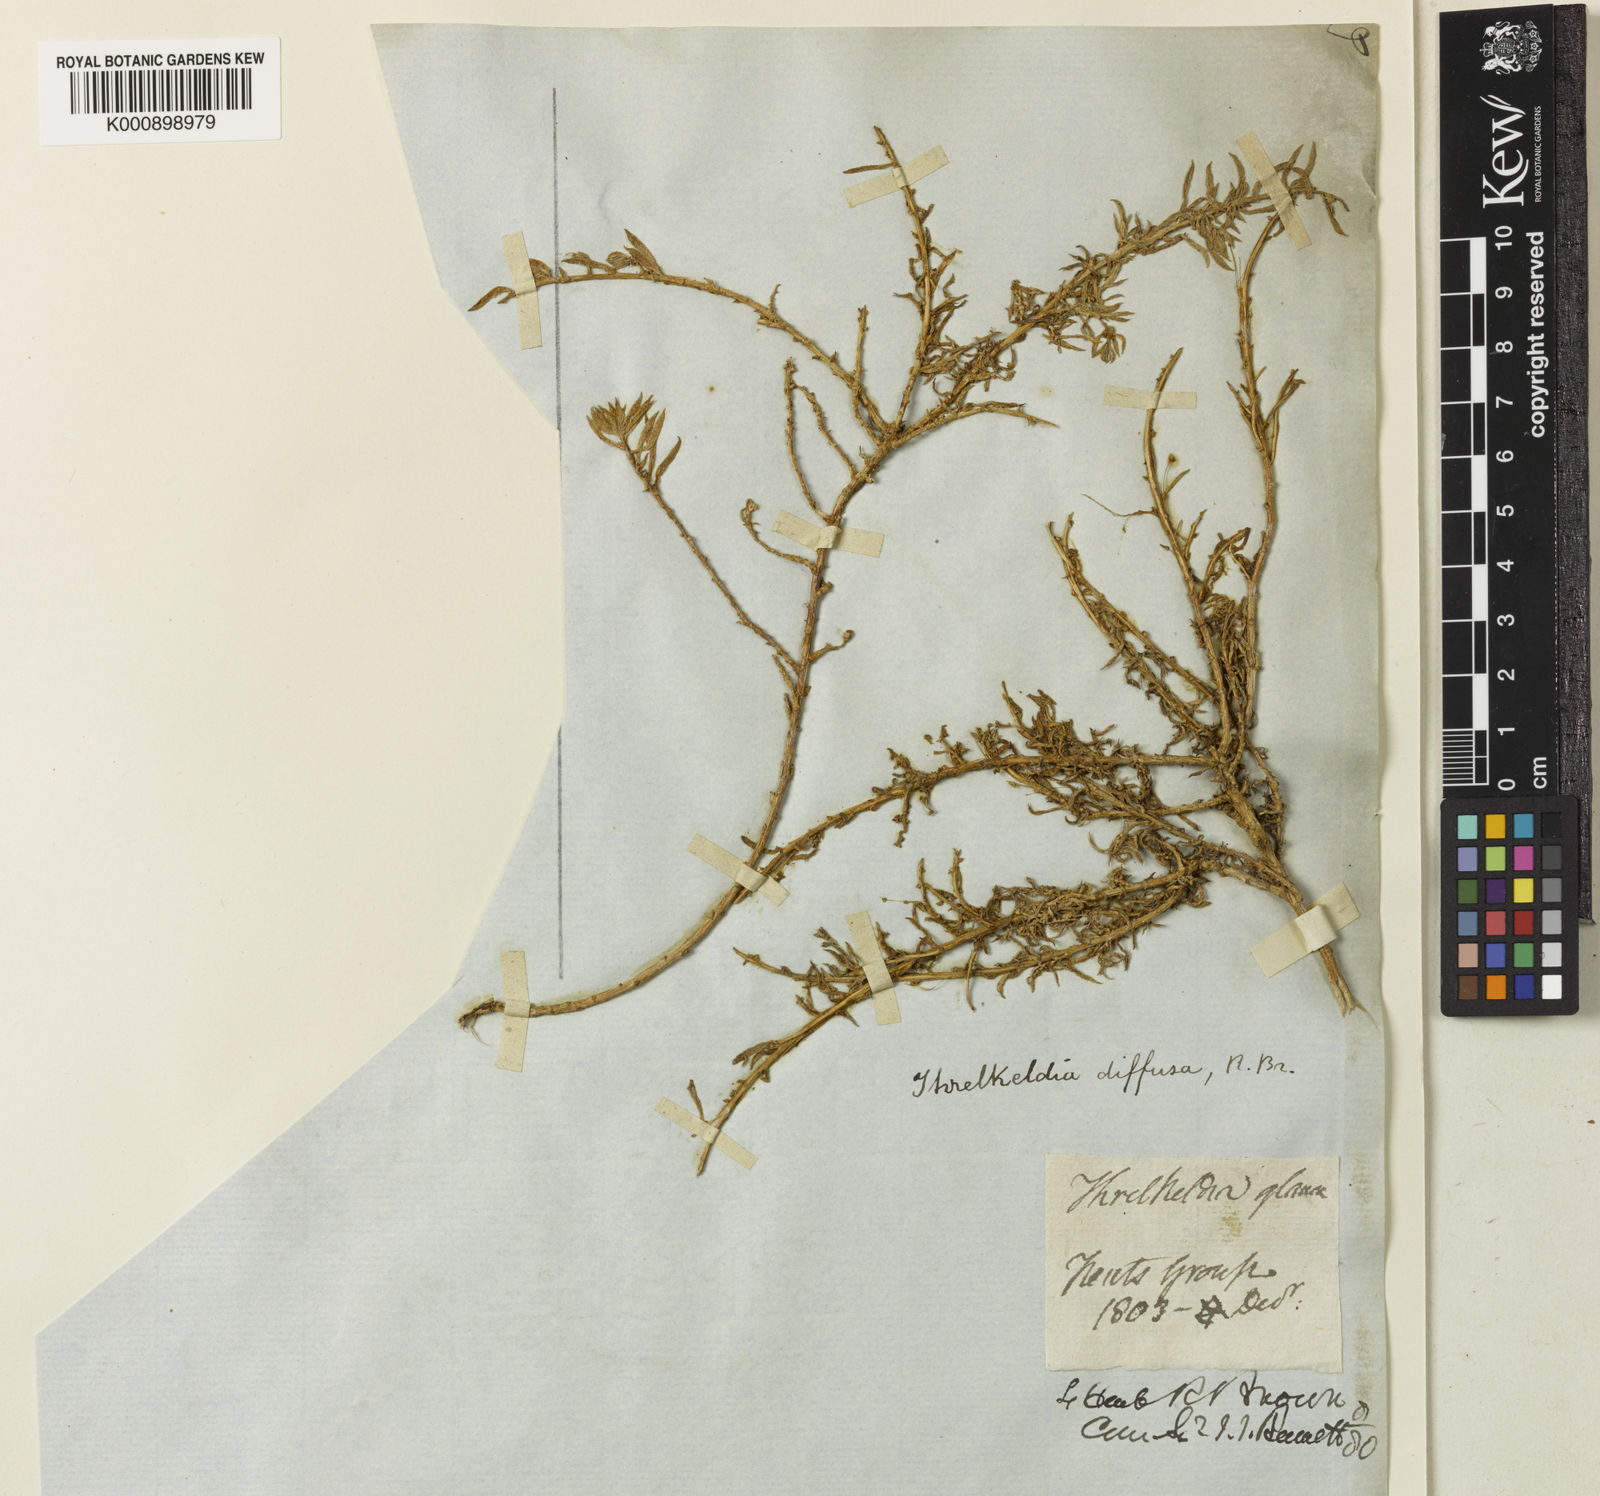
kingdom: Plantae
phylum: Tracheophyta
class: Magnoliopsida
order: Caryophyllales
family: Amaranthaceae
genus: Threlkeldia
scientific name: Threlkeldia diffusa
